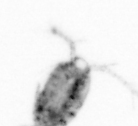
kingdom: Animalia
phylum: Arthropoda
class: Copepoda
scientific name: Copepoda
